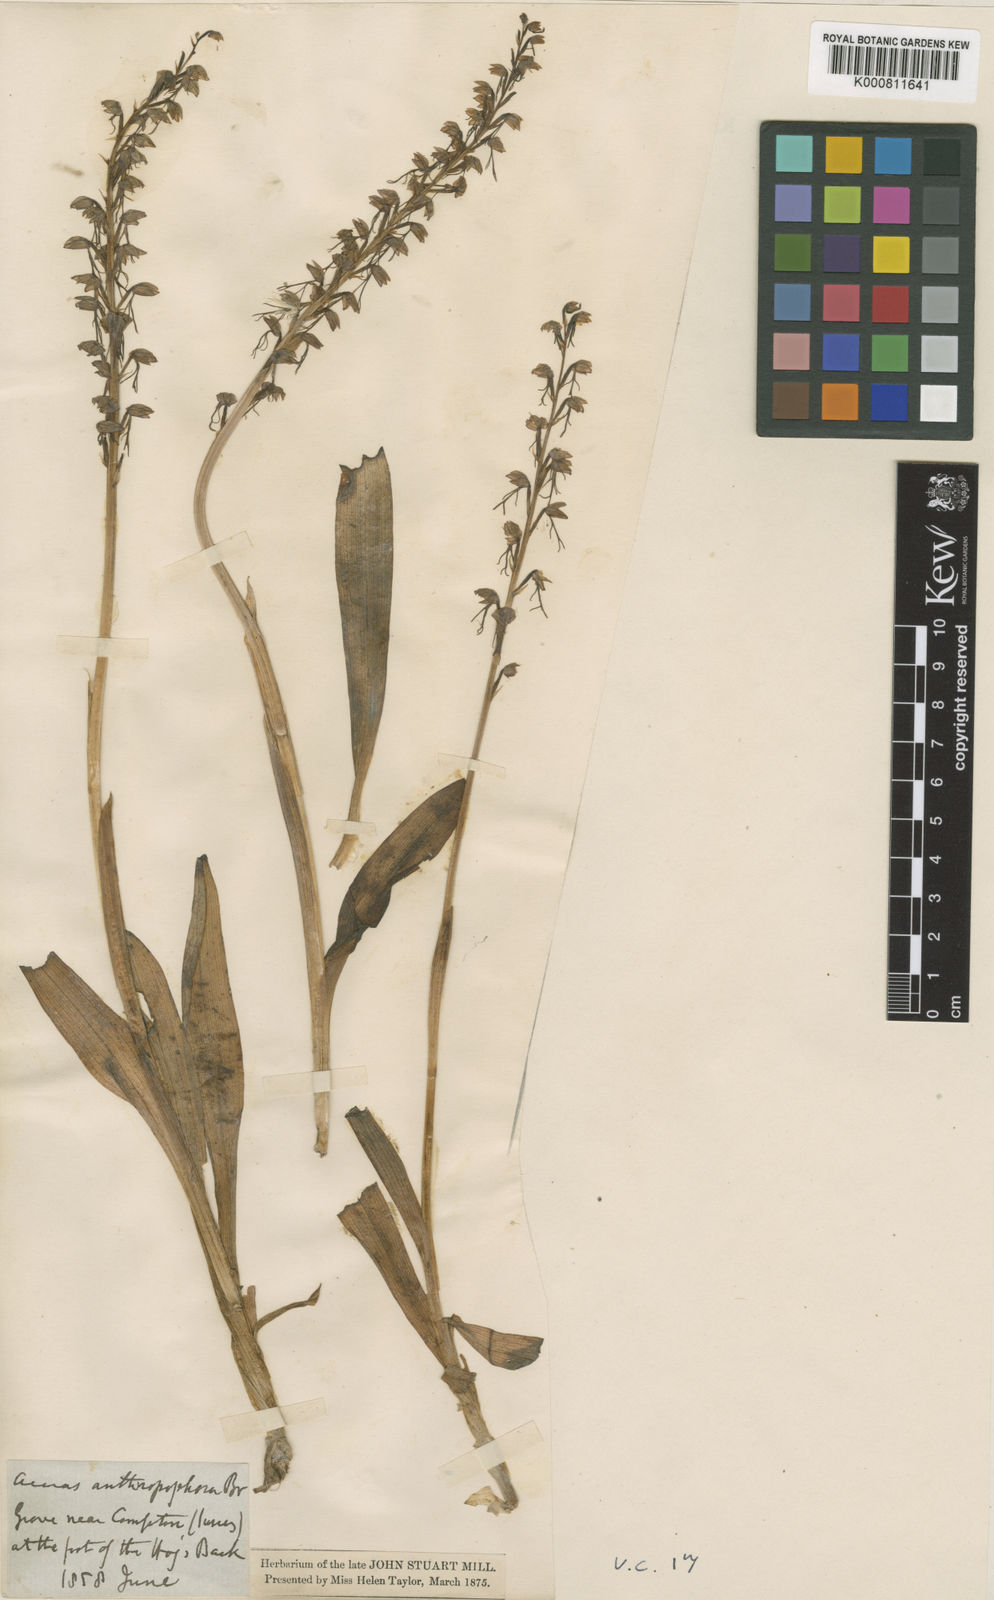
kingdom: Plantae
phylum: Tracheophyta
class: Liliopsida
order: Asparagales
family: Orchidaceae
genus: Orchis
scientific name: Orchis
